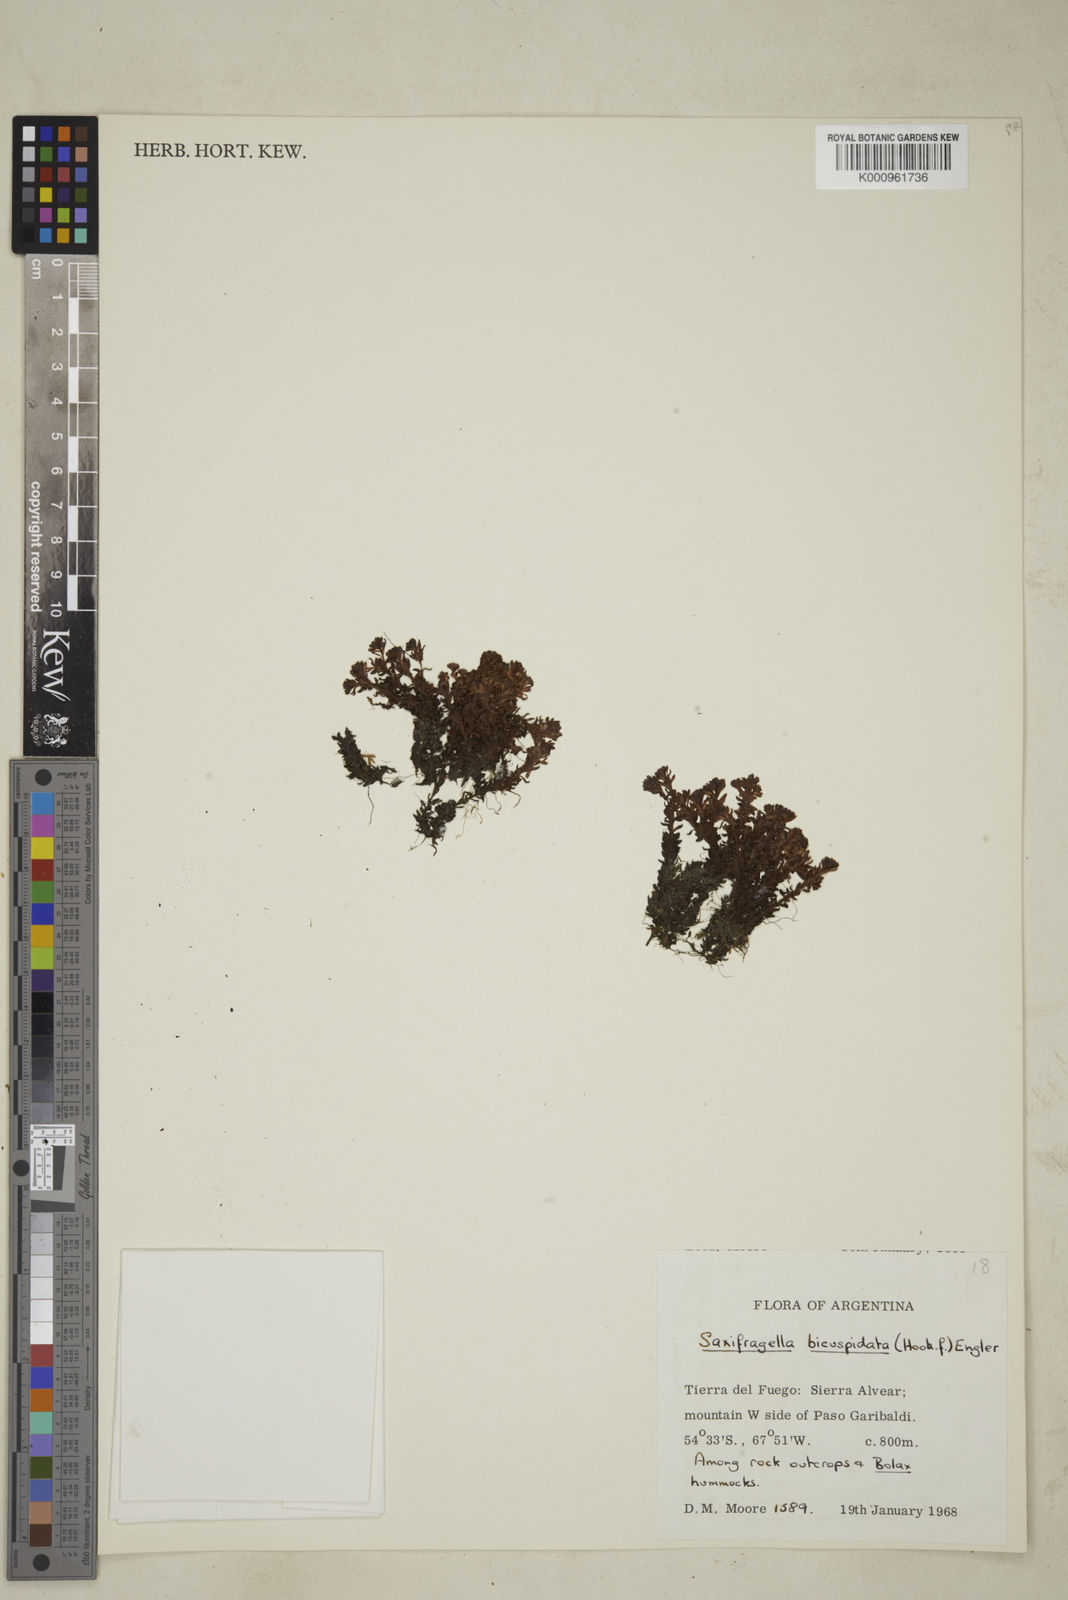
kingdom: Plantae
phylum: Tracheophyta
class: Magnoliopsida
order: Saxifragales
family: Saxifragaceae
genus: Saxifraga
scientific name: Saxifraga bicuspidata
